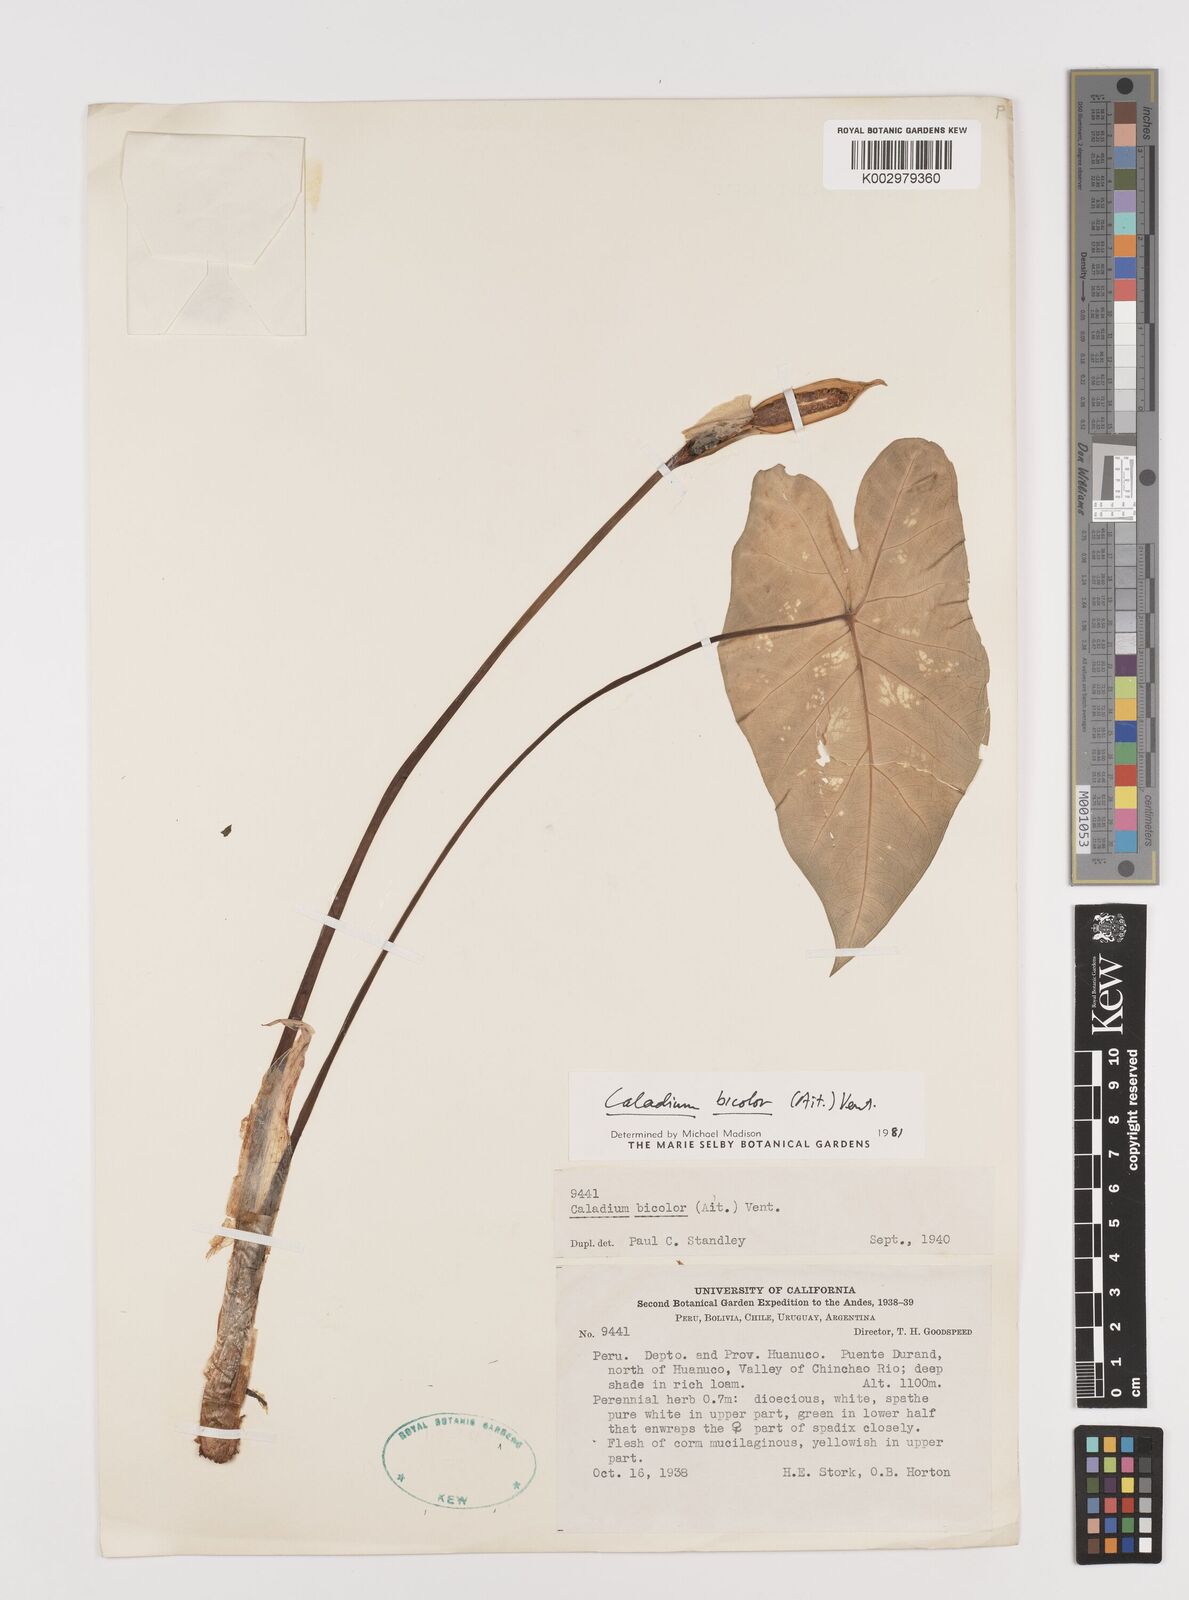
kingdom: Plantae
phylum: Tracheophyta
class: Liliopsida
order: Alismatales
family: Araceae
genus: Caladium
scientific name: Caladium bicolor
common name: Artist's pallet
